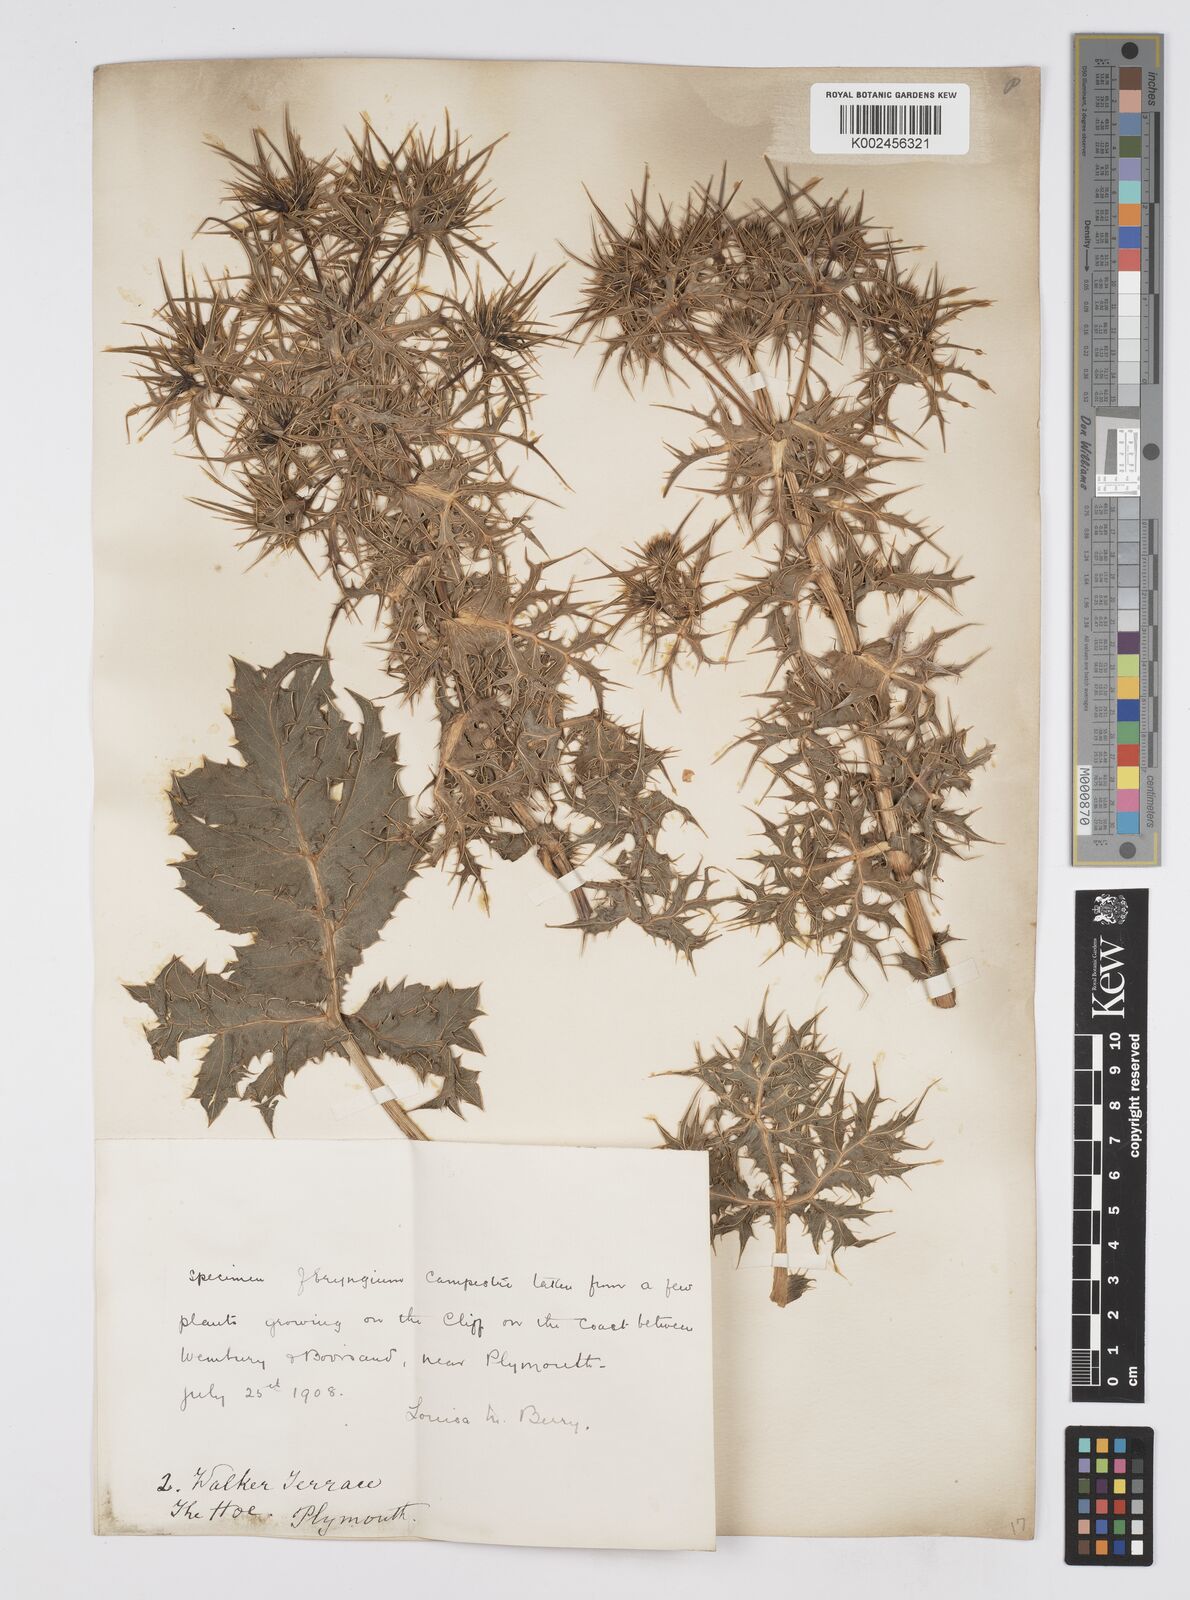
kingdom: Plantae
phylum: Tracheophyta
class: Magnoliopsida
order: Apiales
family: Apiaceae
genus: Eryngium
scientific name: Eryngium campestre
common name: Field eryngo
